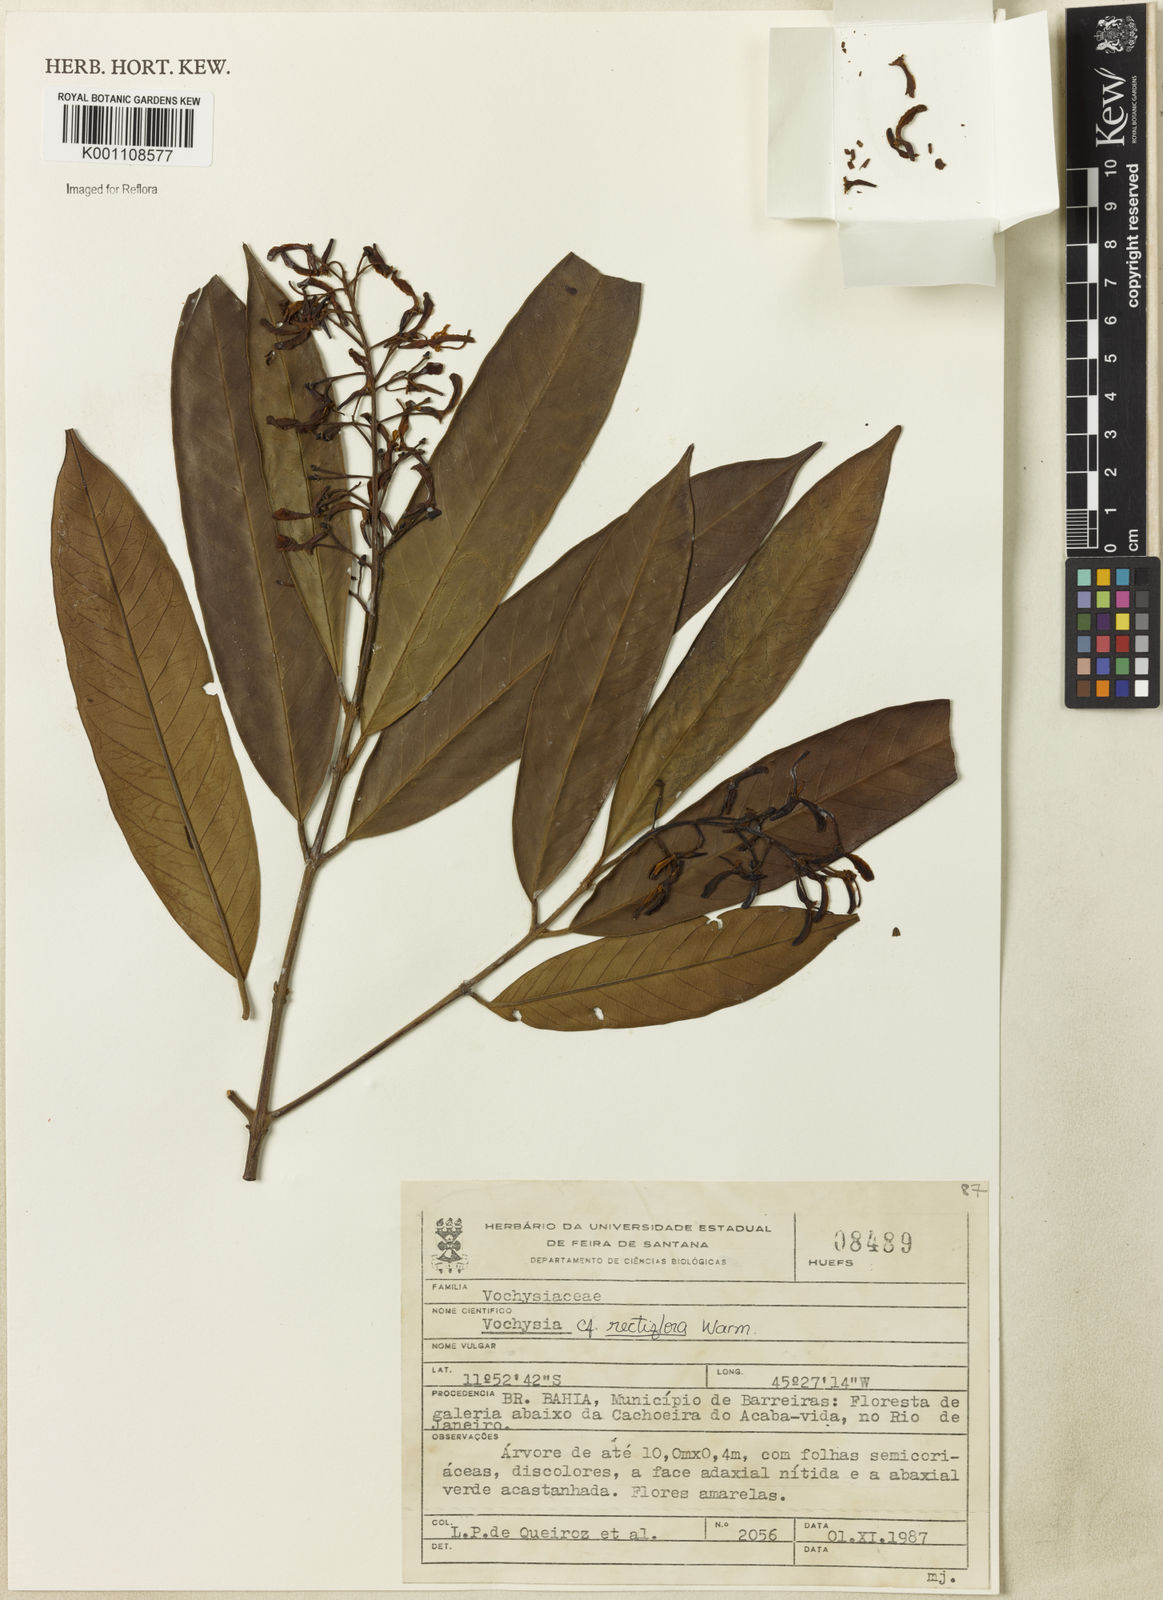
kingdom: Plantae
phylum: Tracheophyta
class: Magnoliopsida
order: Myrtales
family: Vochysiaceae
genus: Vochysia
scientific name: Vochysia rectiflora
